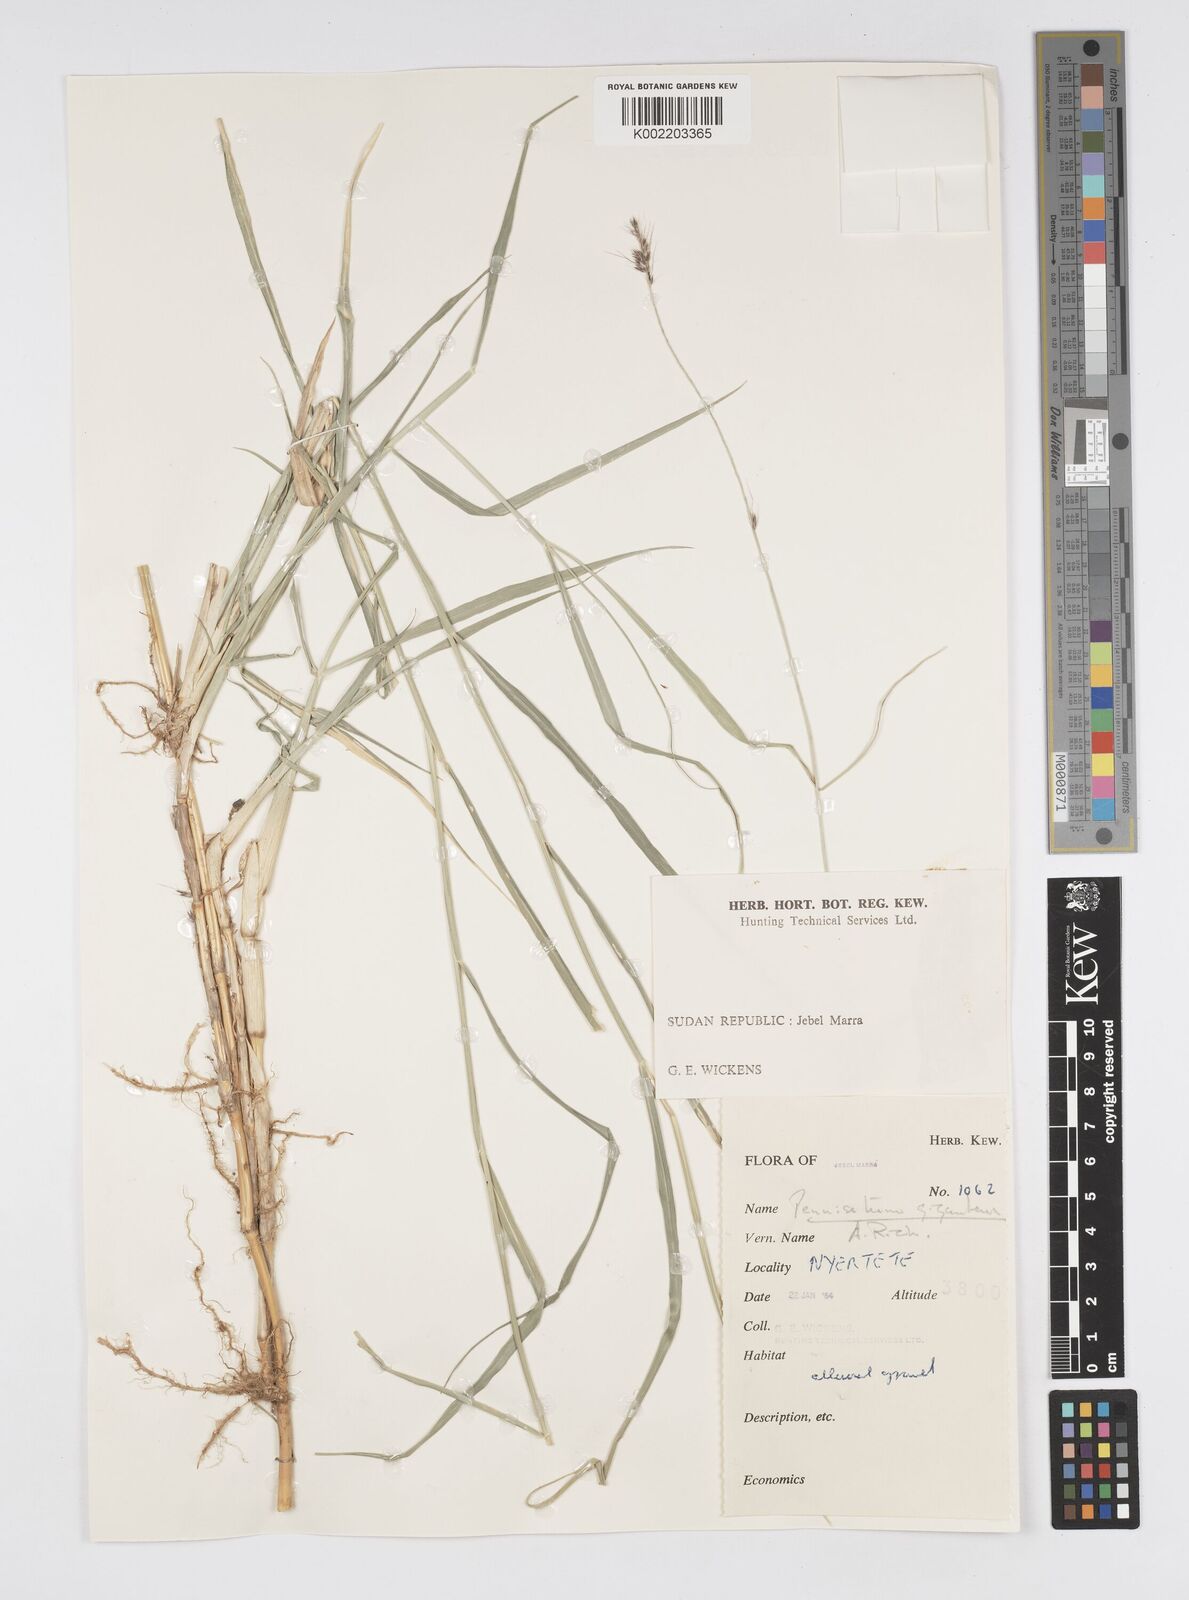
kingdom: Plantae
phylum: Tracheophyta
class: Liliopsida
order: Poales
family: Poaceae
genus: Cenchrus
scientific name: Cenchrus caudatus
